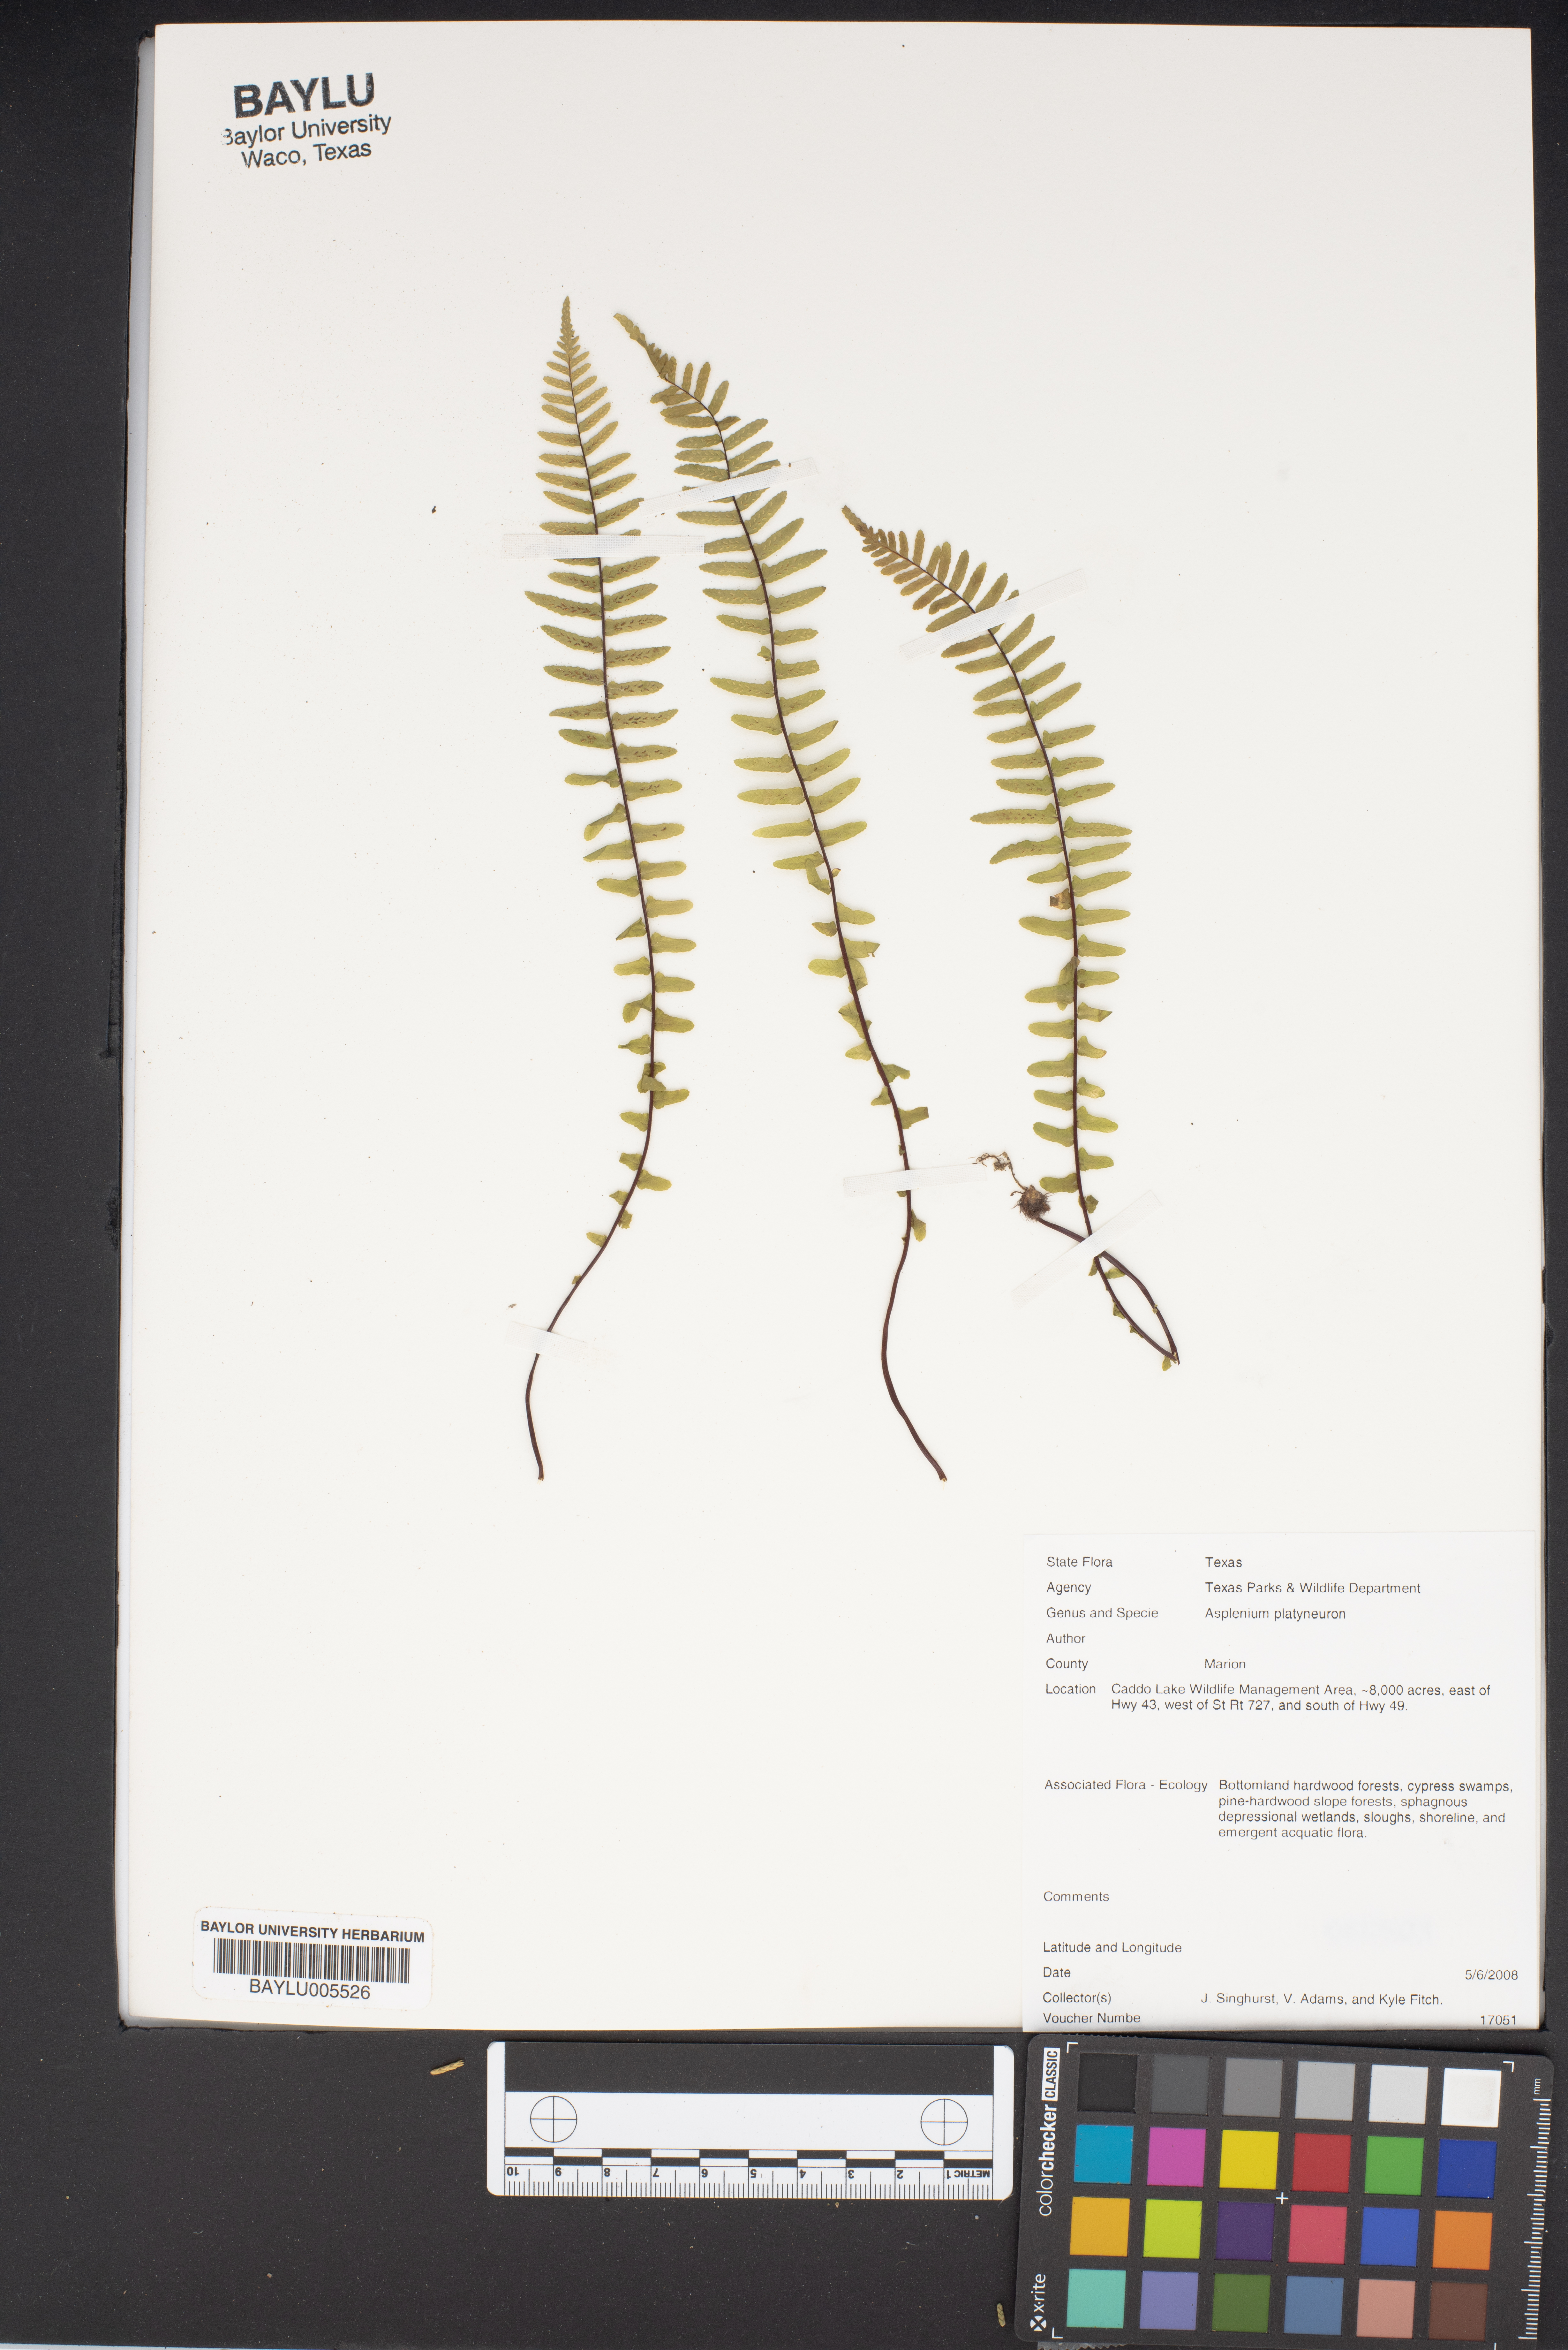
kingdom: Plantae
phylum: Tracheophyta
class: Polypodiopsida
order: Polypodiales
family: Aspleniaceae
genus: Asplenium
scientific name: Asplenium platyneuron
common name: Ebony spleenwort
